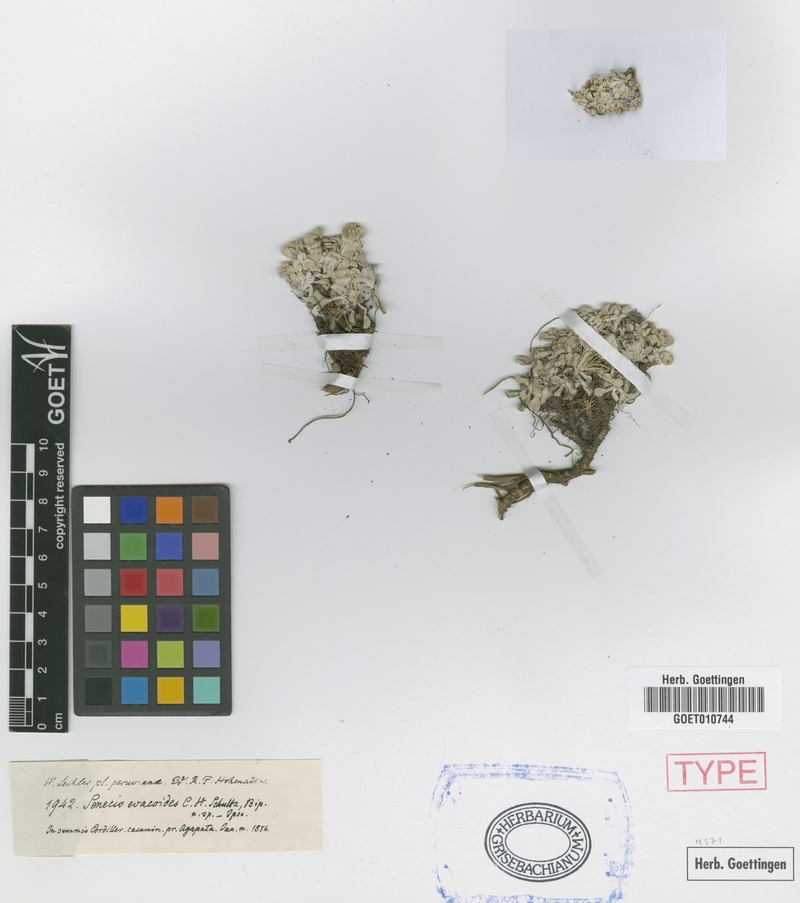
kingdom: Plantae
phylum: Tracheophyta
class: Magnoliopsida
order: Asterales
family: Asteraceae
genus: Senecio
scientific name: Senecio evacoides
